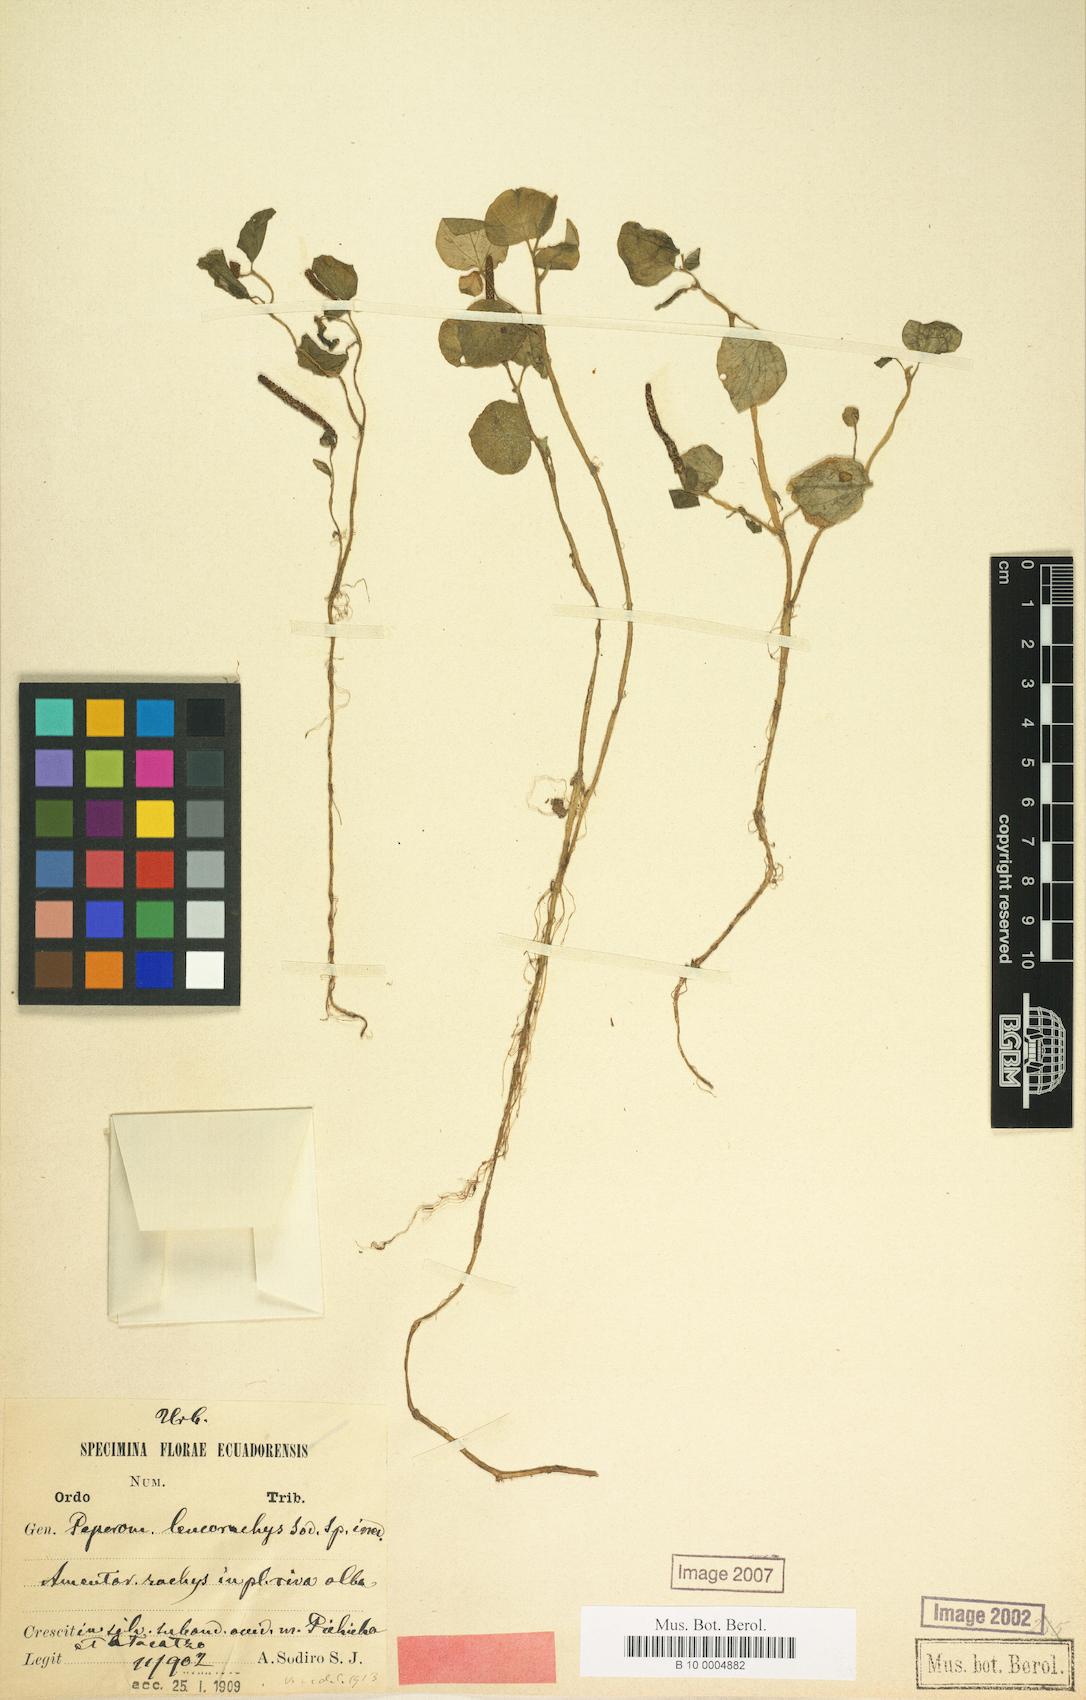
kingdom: Plantae
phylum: Tracheophyta
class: Magnoliopsida
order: Piperales
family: Piperaceae
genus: Peperomia
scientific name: Peperomia leucorrhachis
